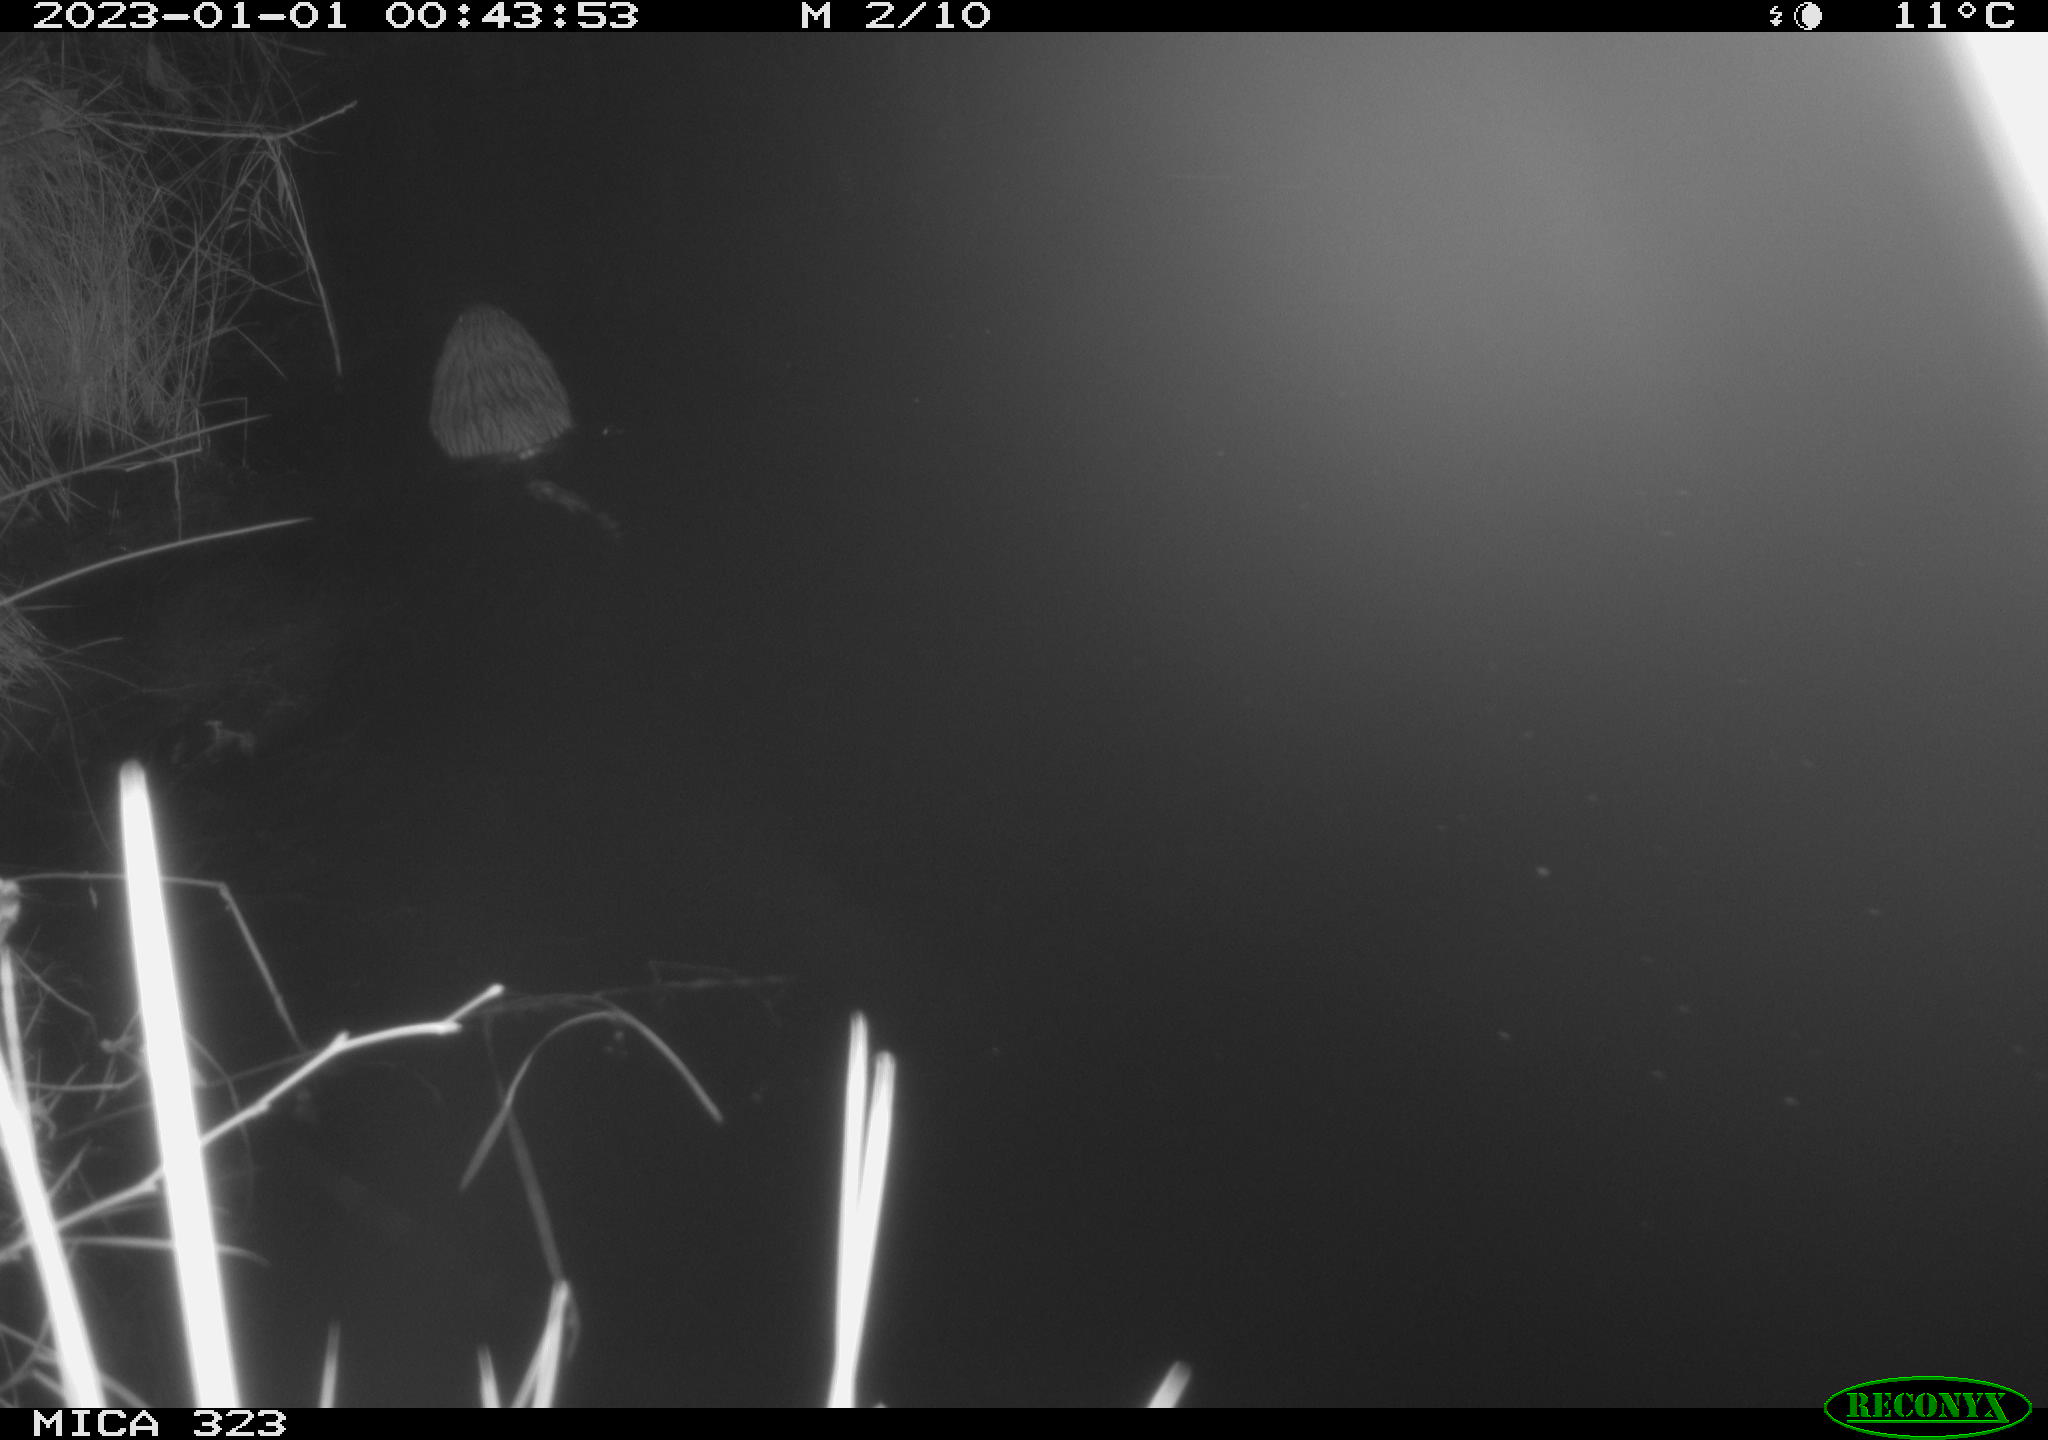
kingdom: Animalia
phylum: Chordata
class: Mammalia
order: Rodentia
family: Cricetidae
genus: Ondatra
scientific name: Ondatra zibethicus
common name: Muskrat
